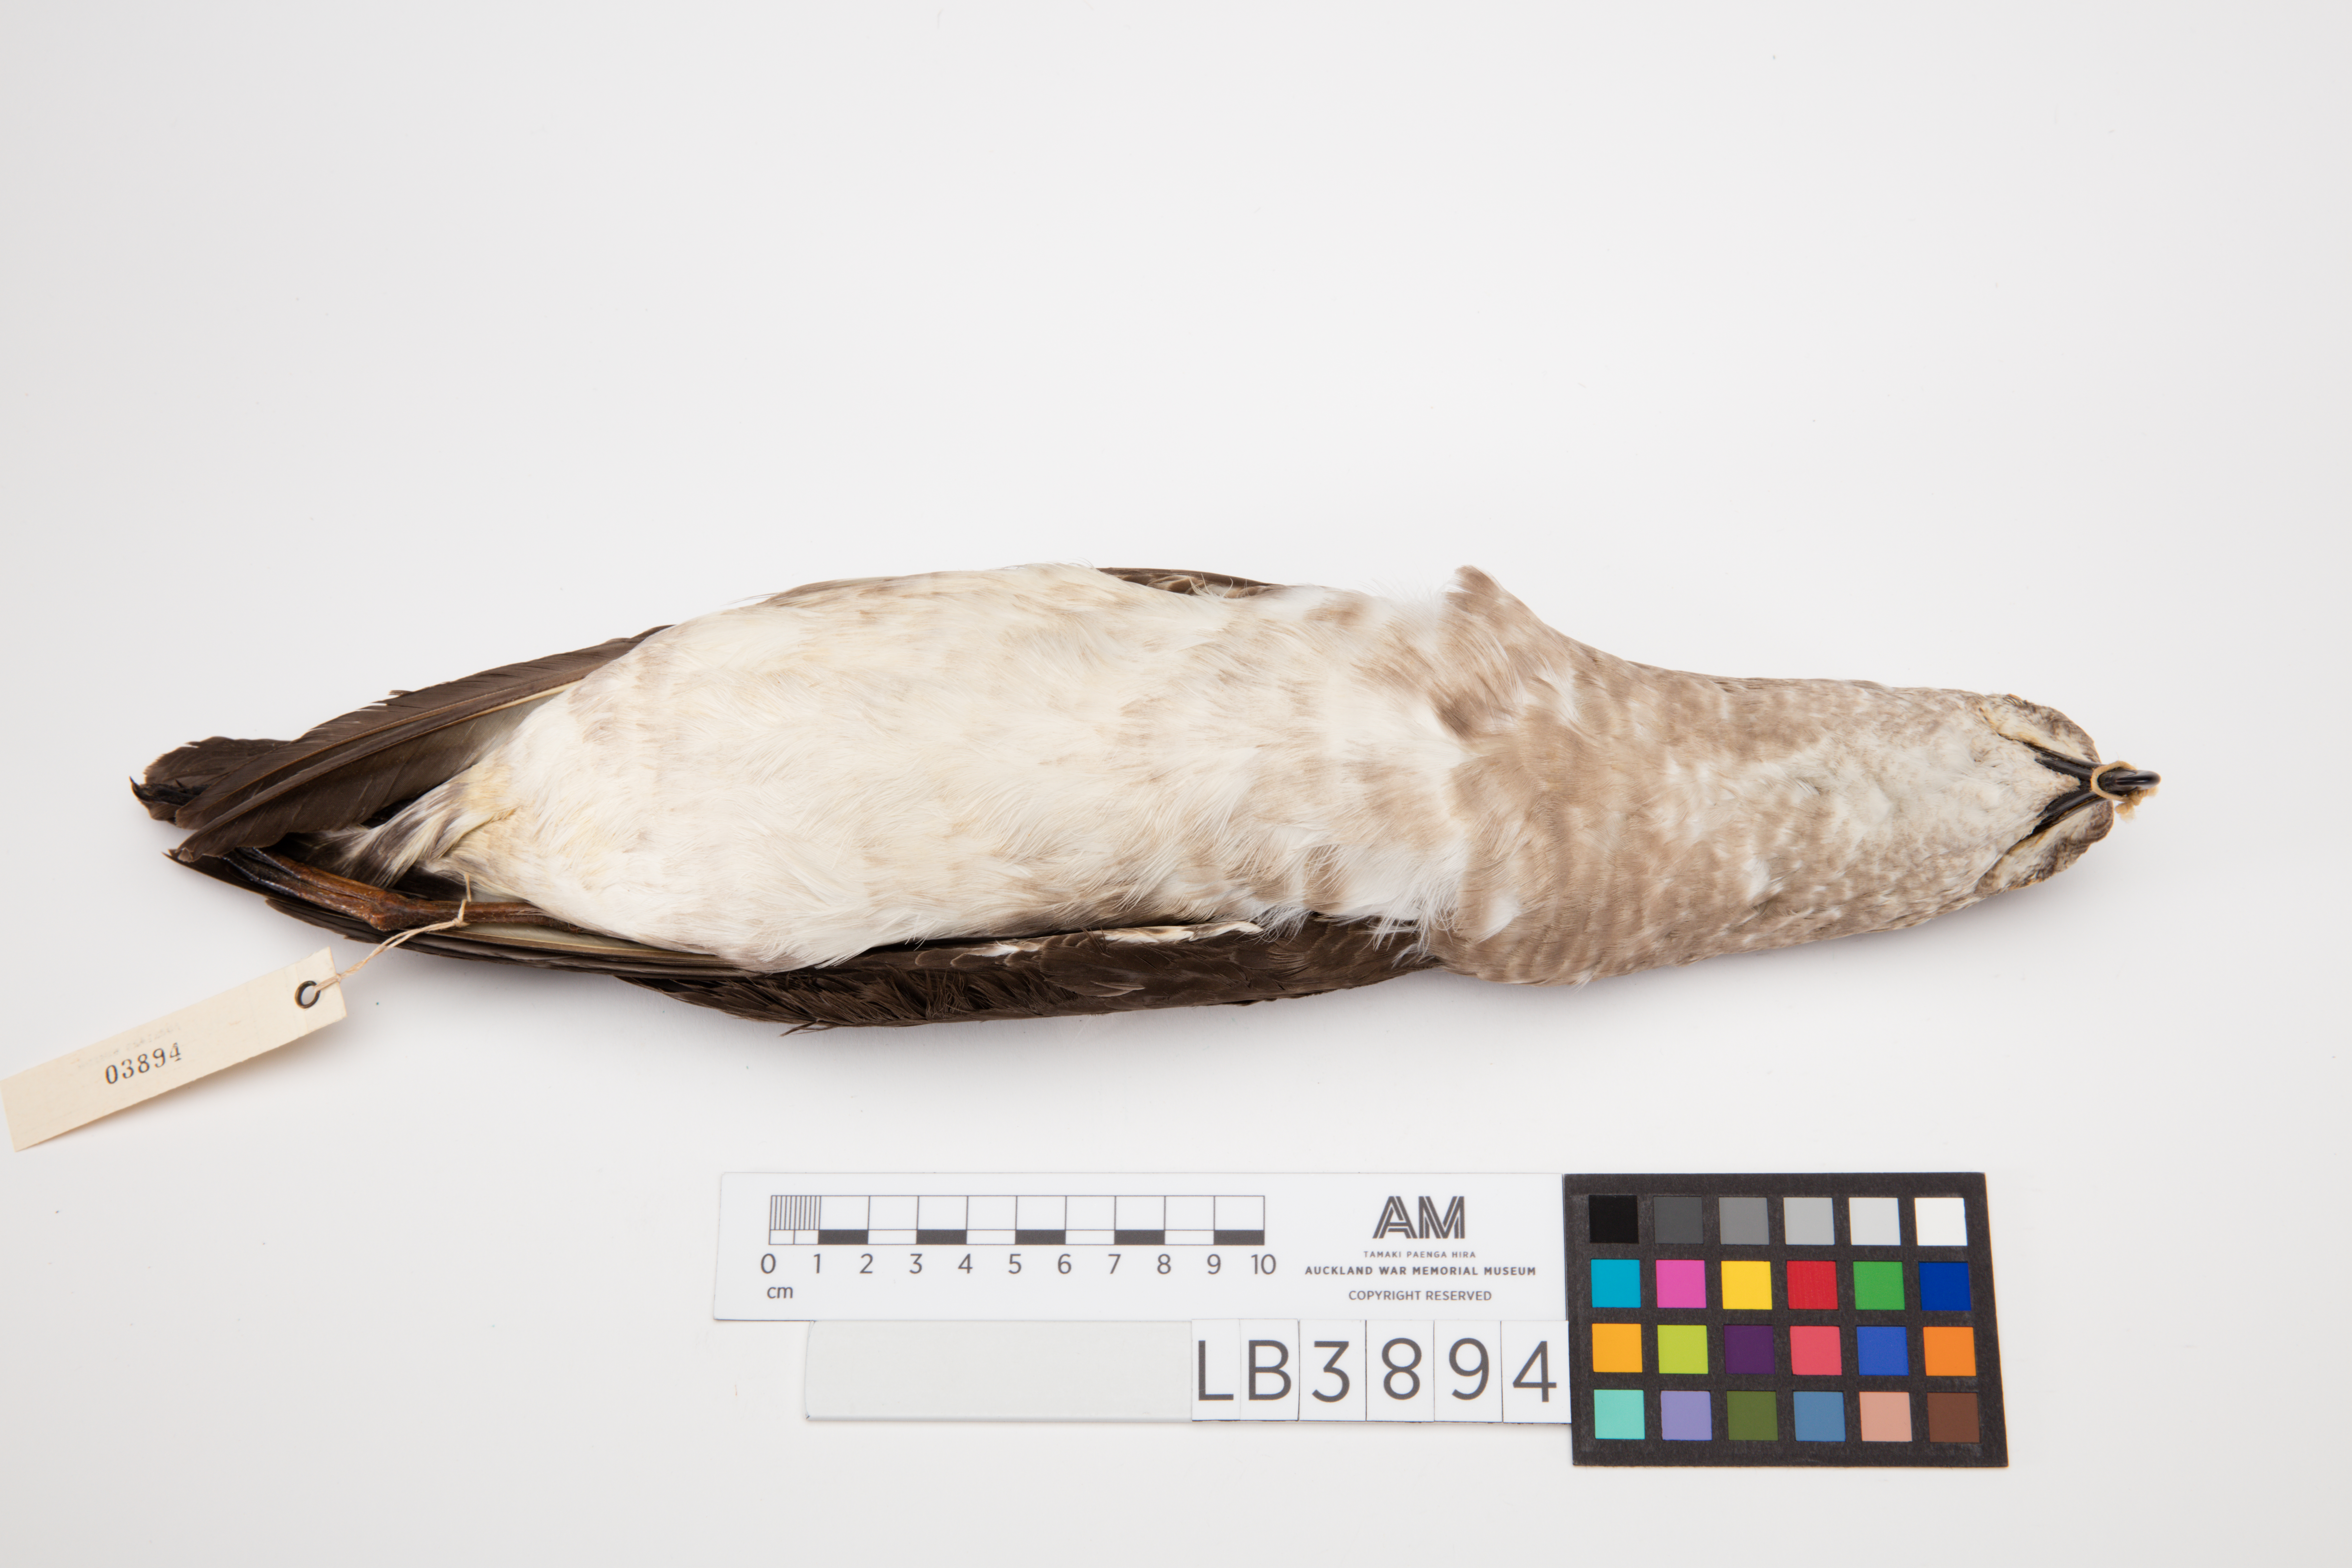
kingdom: Animalia
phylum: Chordata
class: Aves
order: Procellariiformes
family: Procellariidae
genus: Pterodroma
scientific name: Pterodroma neglecta
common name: Kermadec petrel
